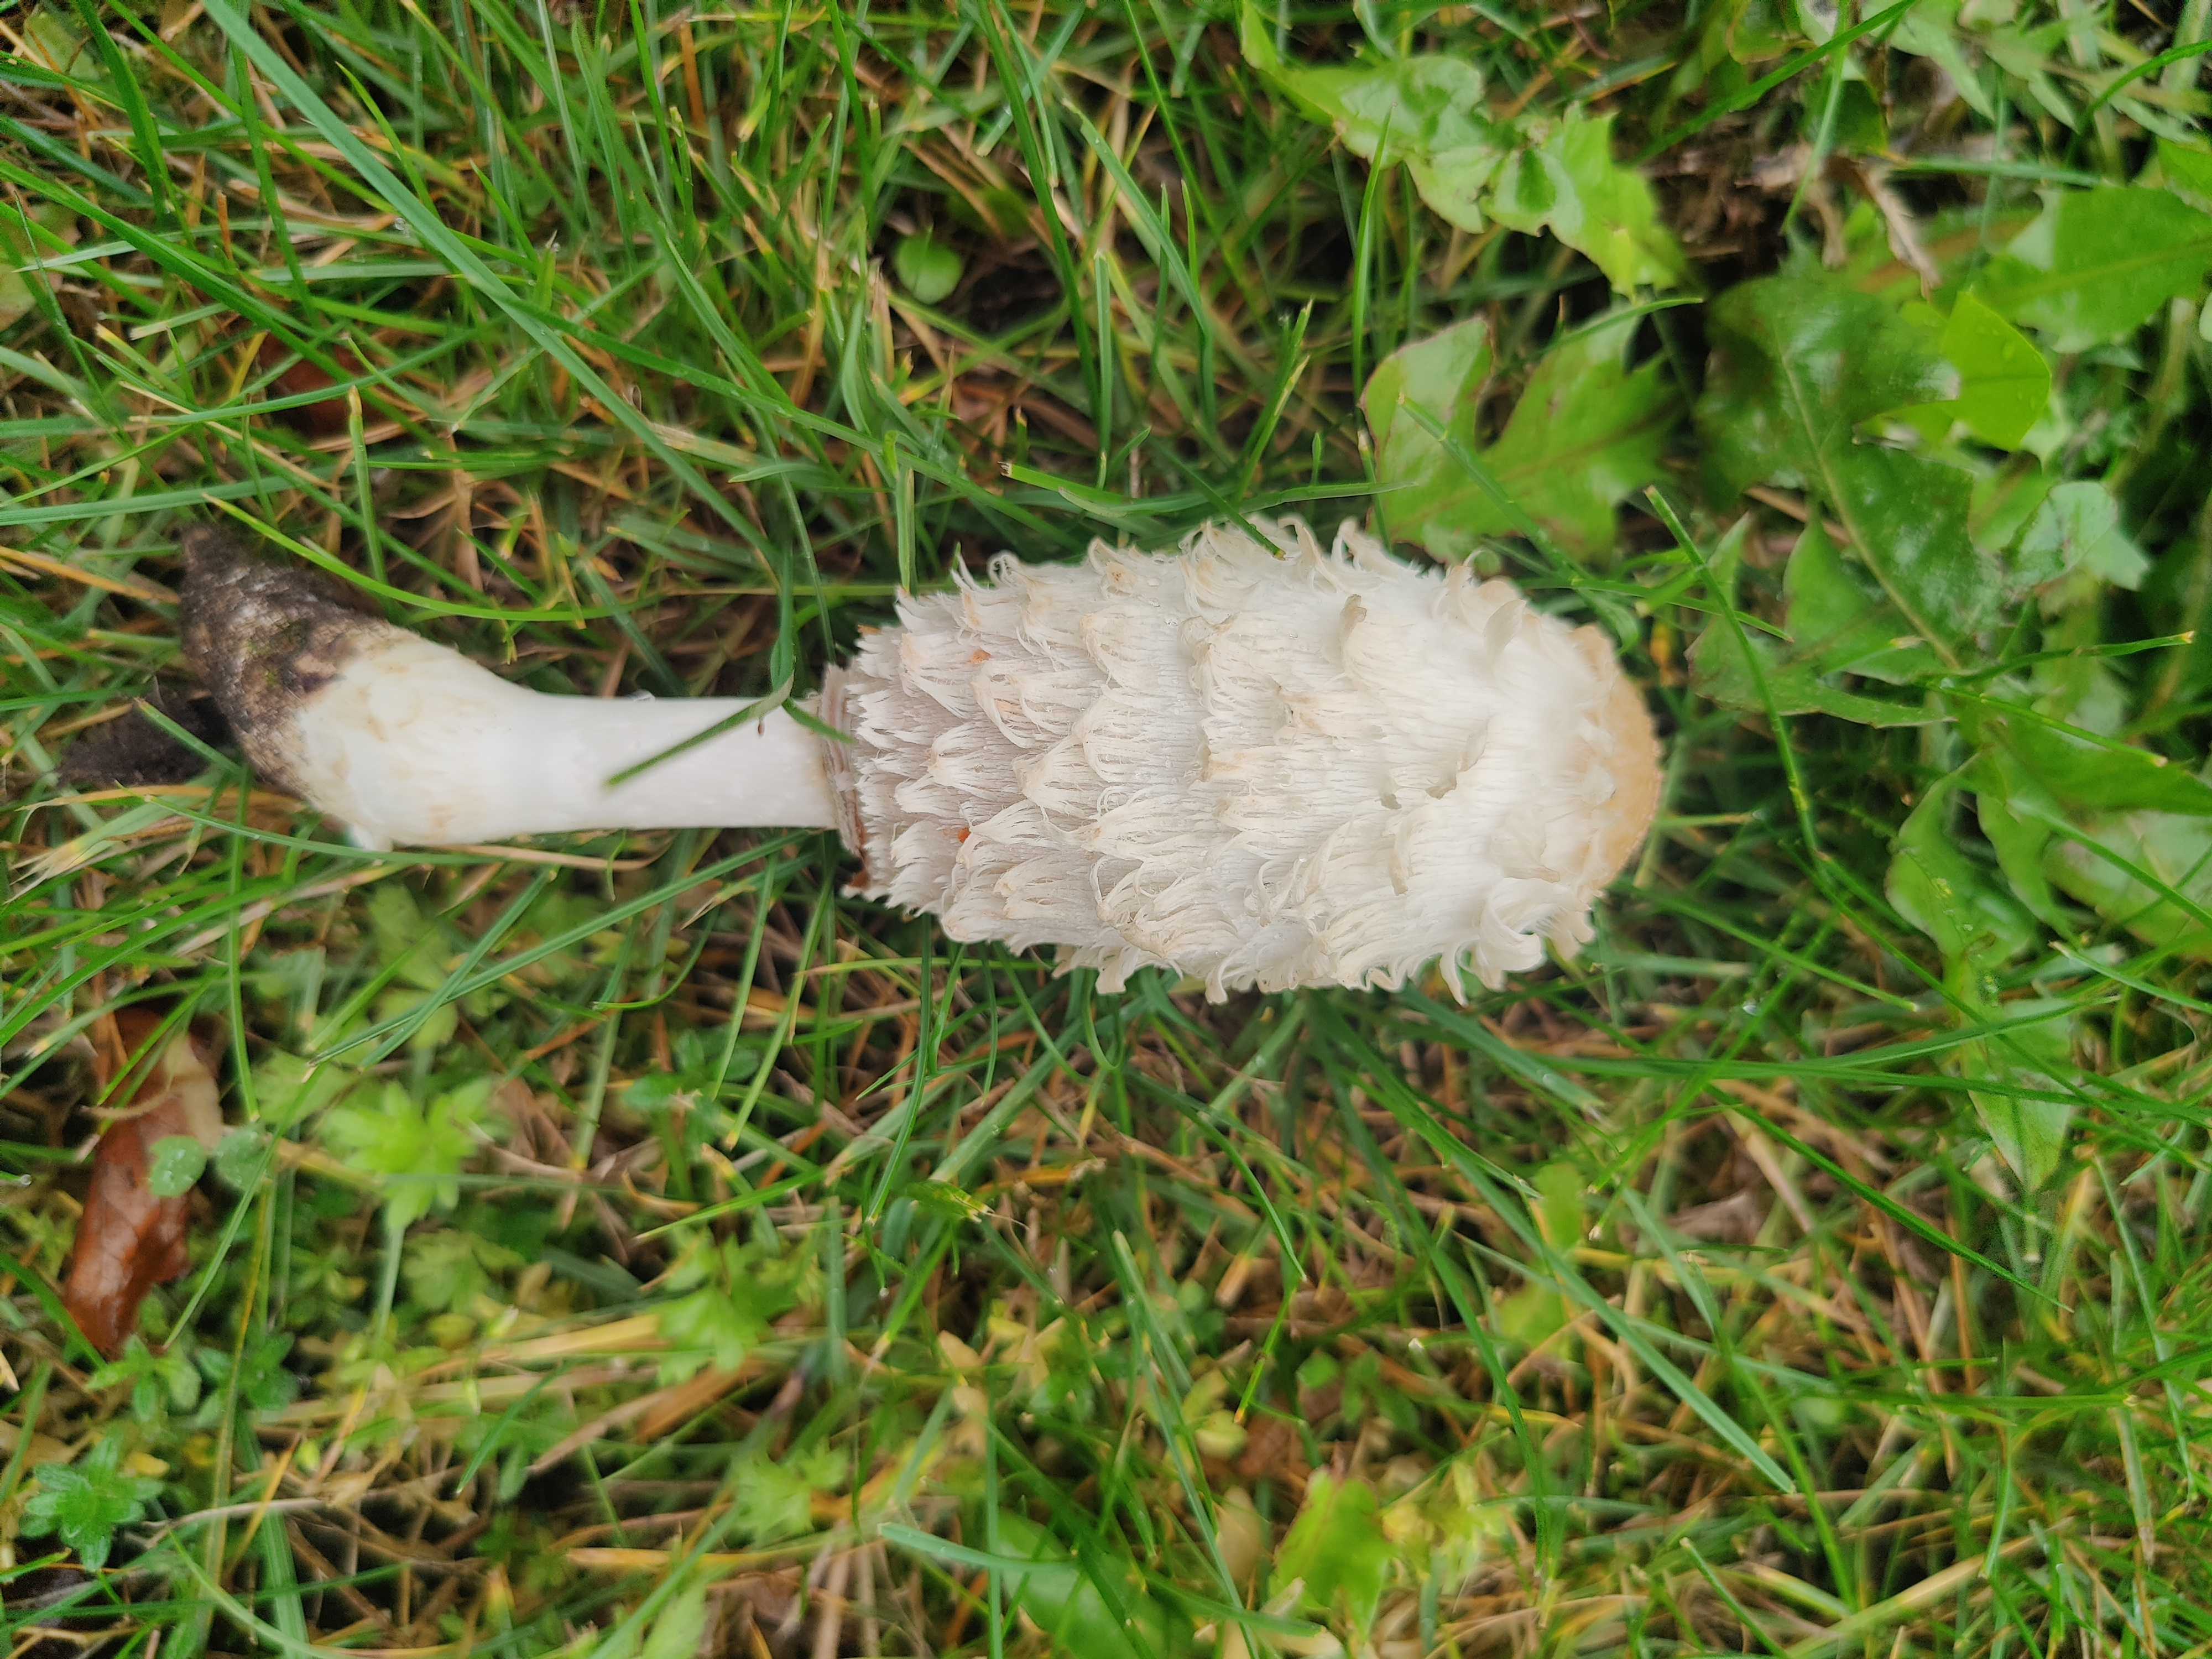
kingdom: Fungi
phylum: Basidiomycota
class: Agaricomycetes
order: Agaricales
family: Agaricaceae
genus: Coprinus
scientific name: Coprinus comatus
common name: stor parykhat
